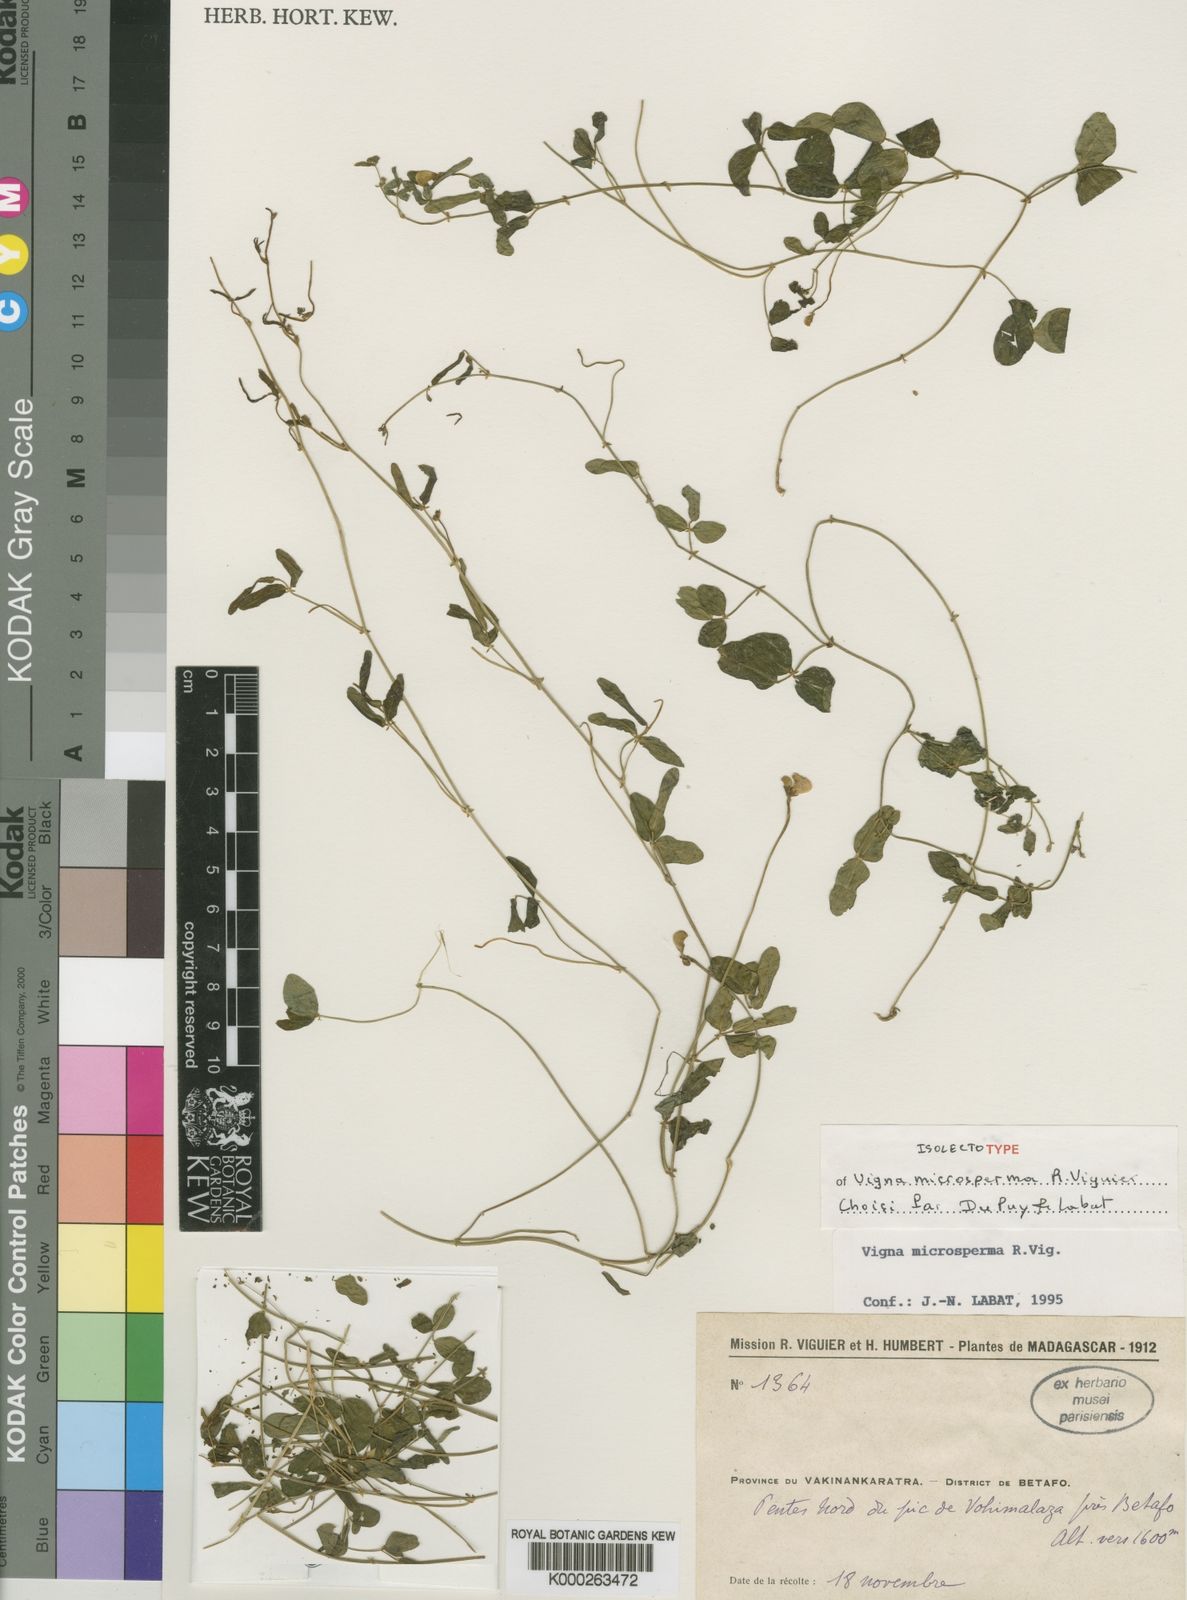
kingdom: Plantae
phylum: Tracheophyta
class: Magnoliopsida
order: Fabales
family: Fabaceae
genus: Vigna
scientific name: Vigna microsperma
